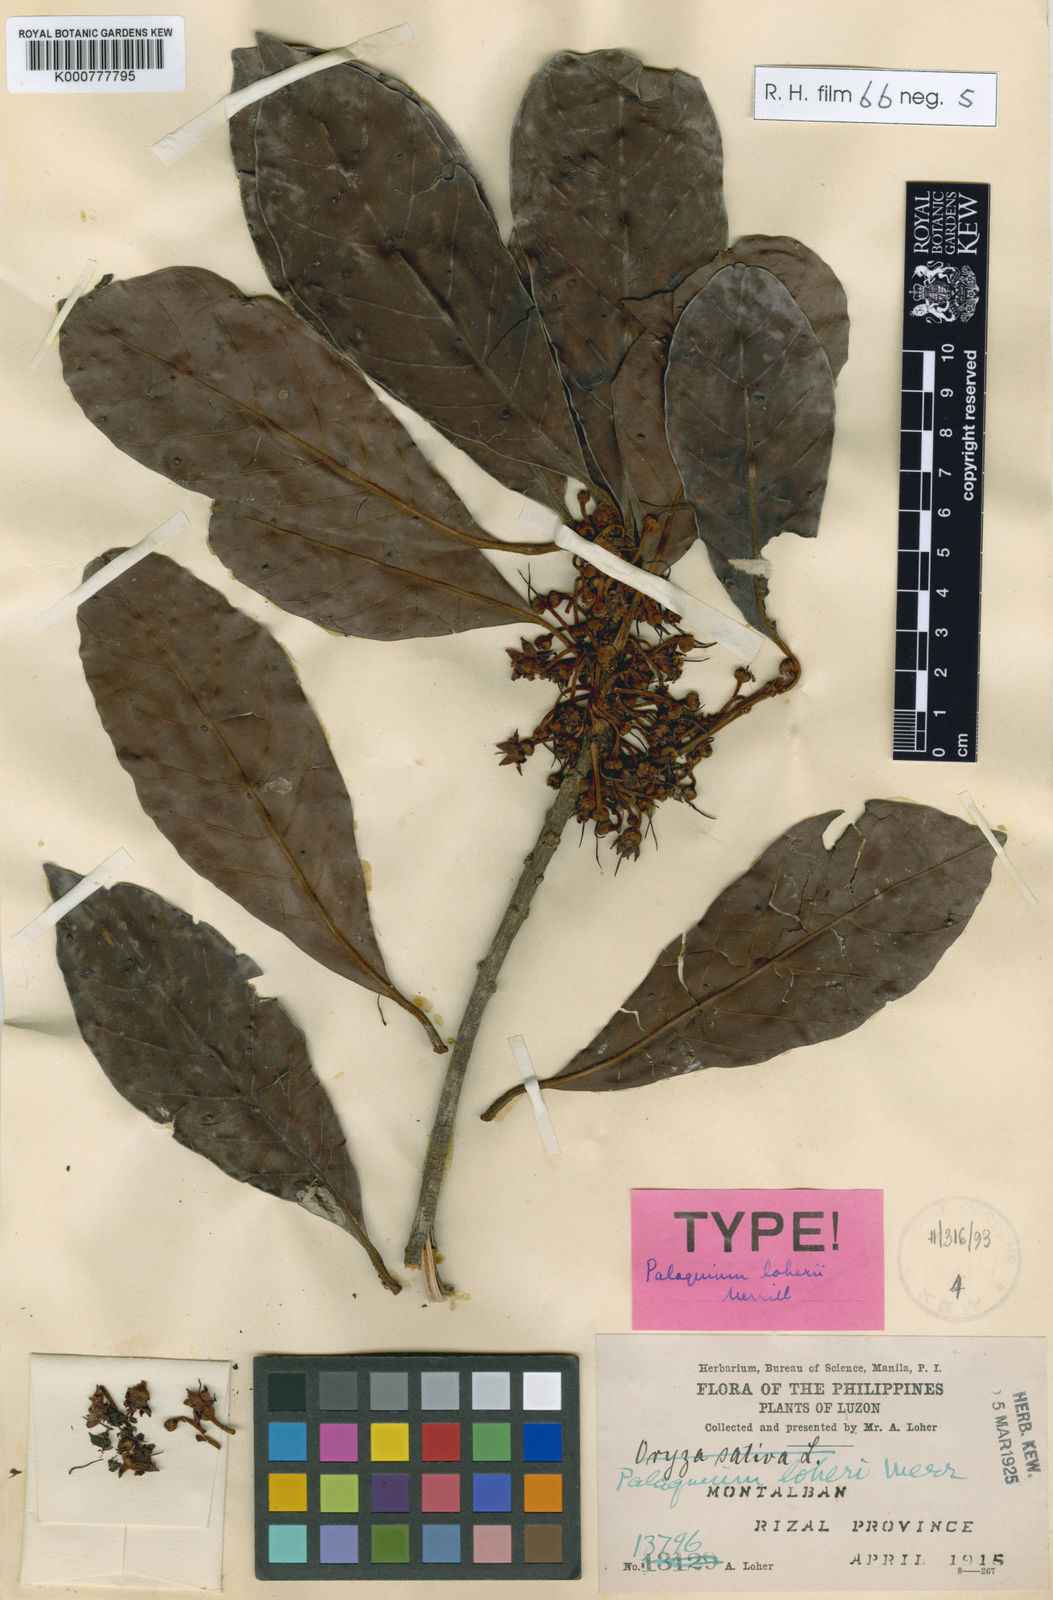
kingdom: Plantae
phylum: Tracheophyta
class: Magnoliopsida
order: Ericales
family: Sapotaceae
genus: Palaquium
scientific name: Palaquium loheri
